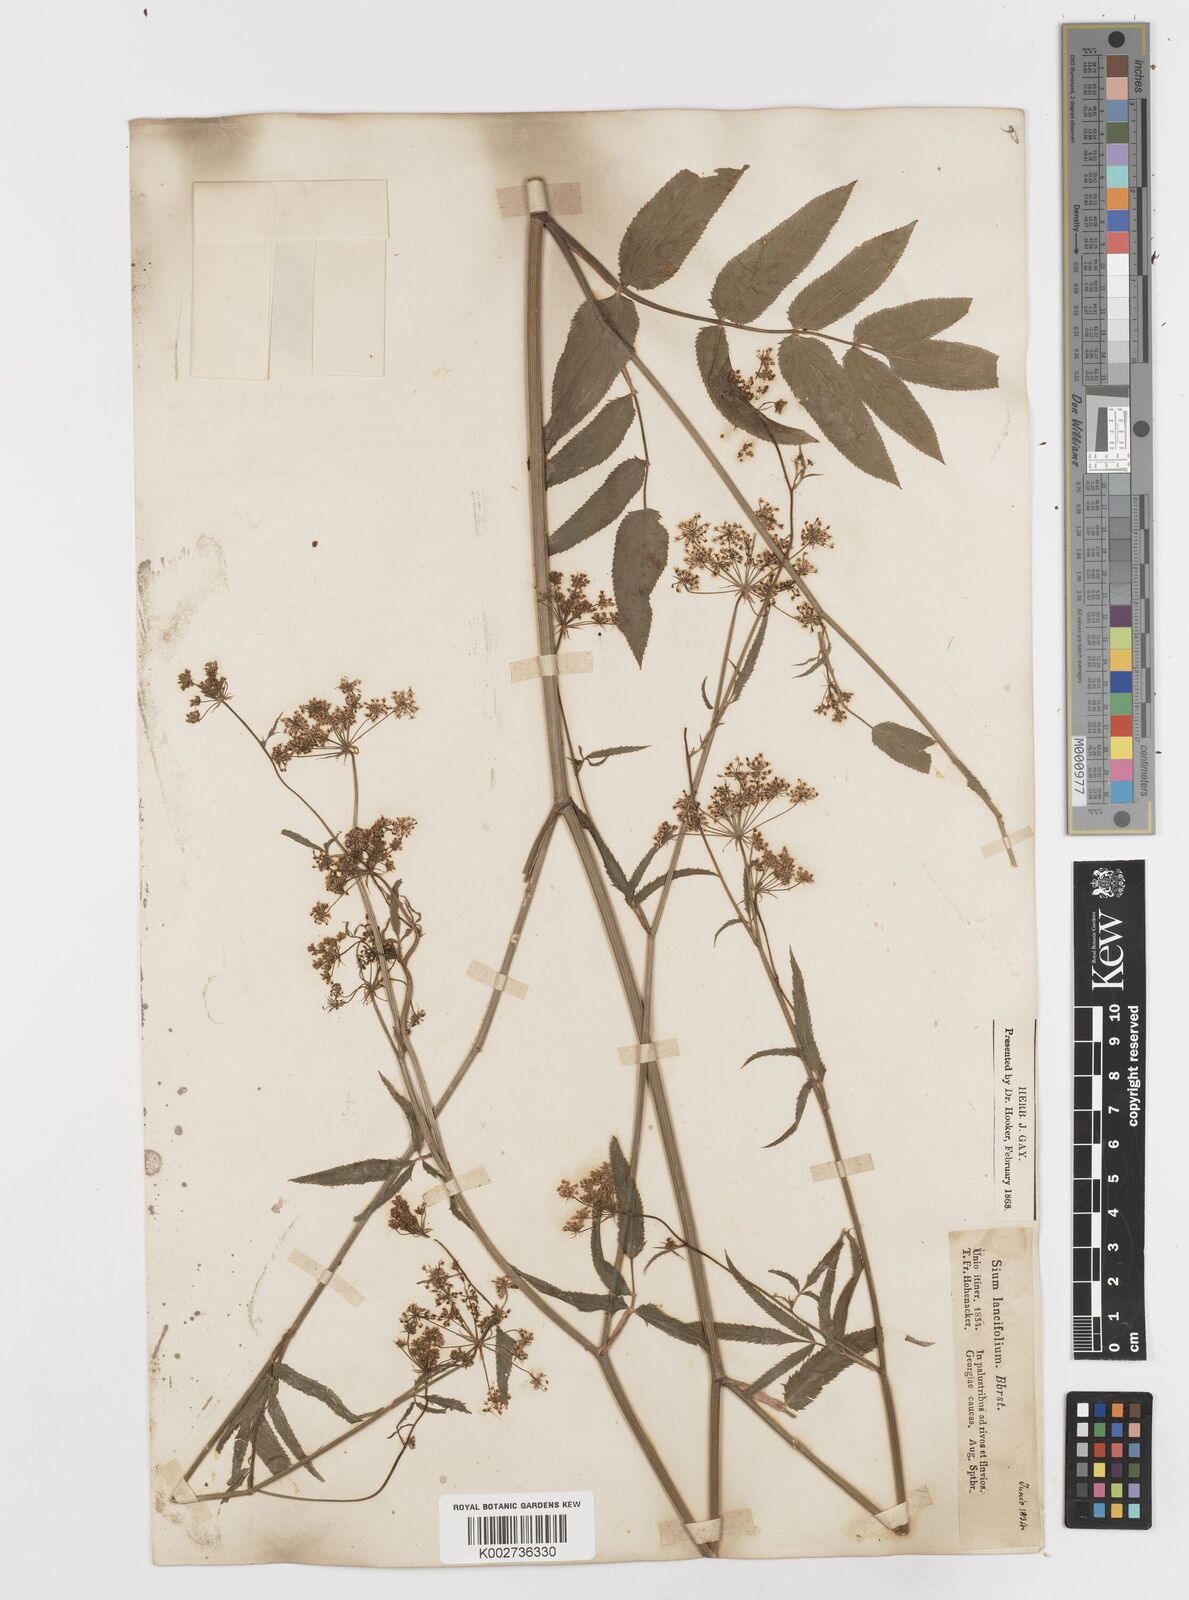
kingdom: Plantae
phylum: Tracheophyta
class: Magnoliopsida
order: Apiales
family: Apiaceae
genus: Sium
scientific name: Sium sisarum
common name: Skirret
